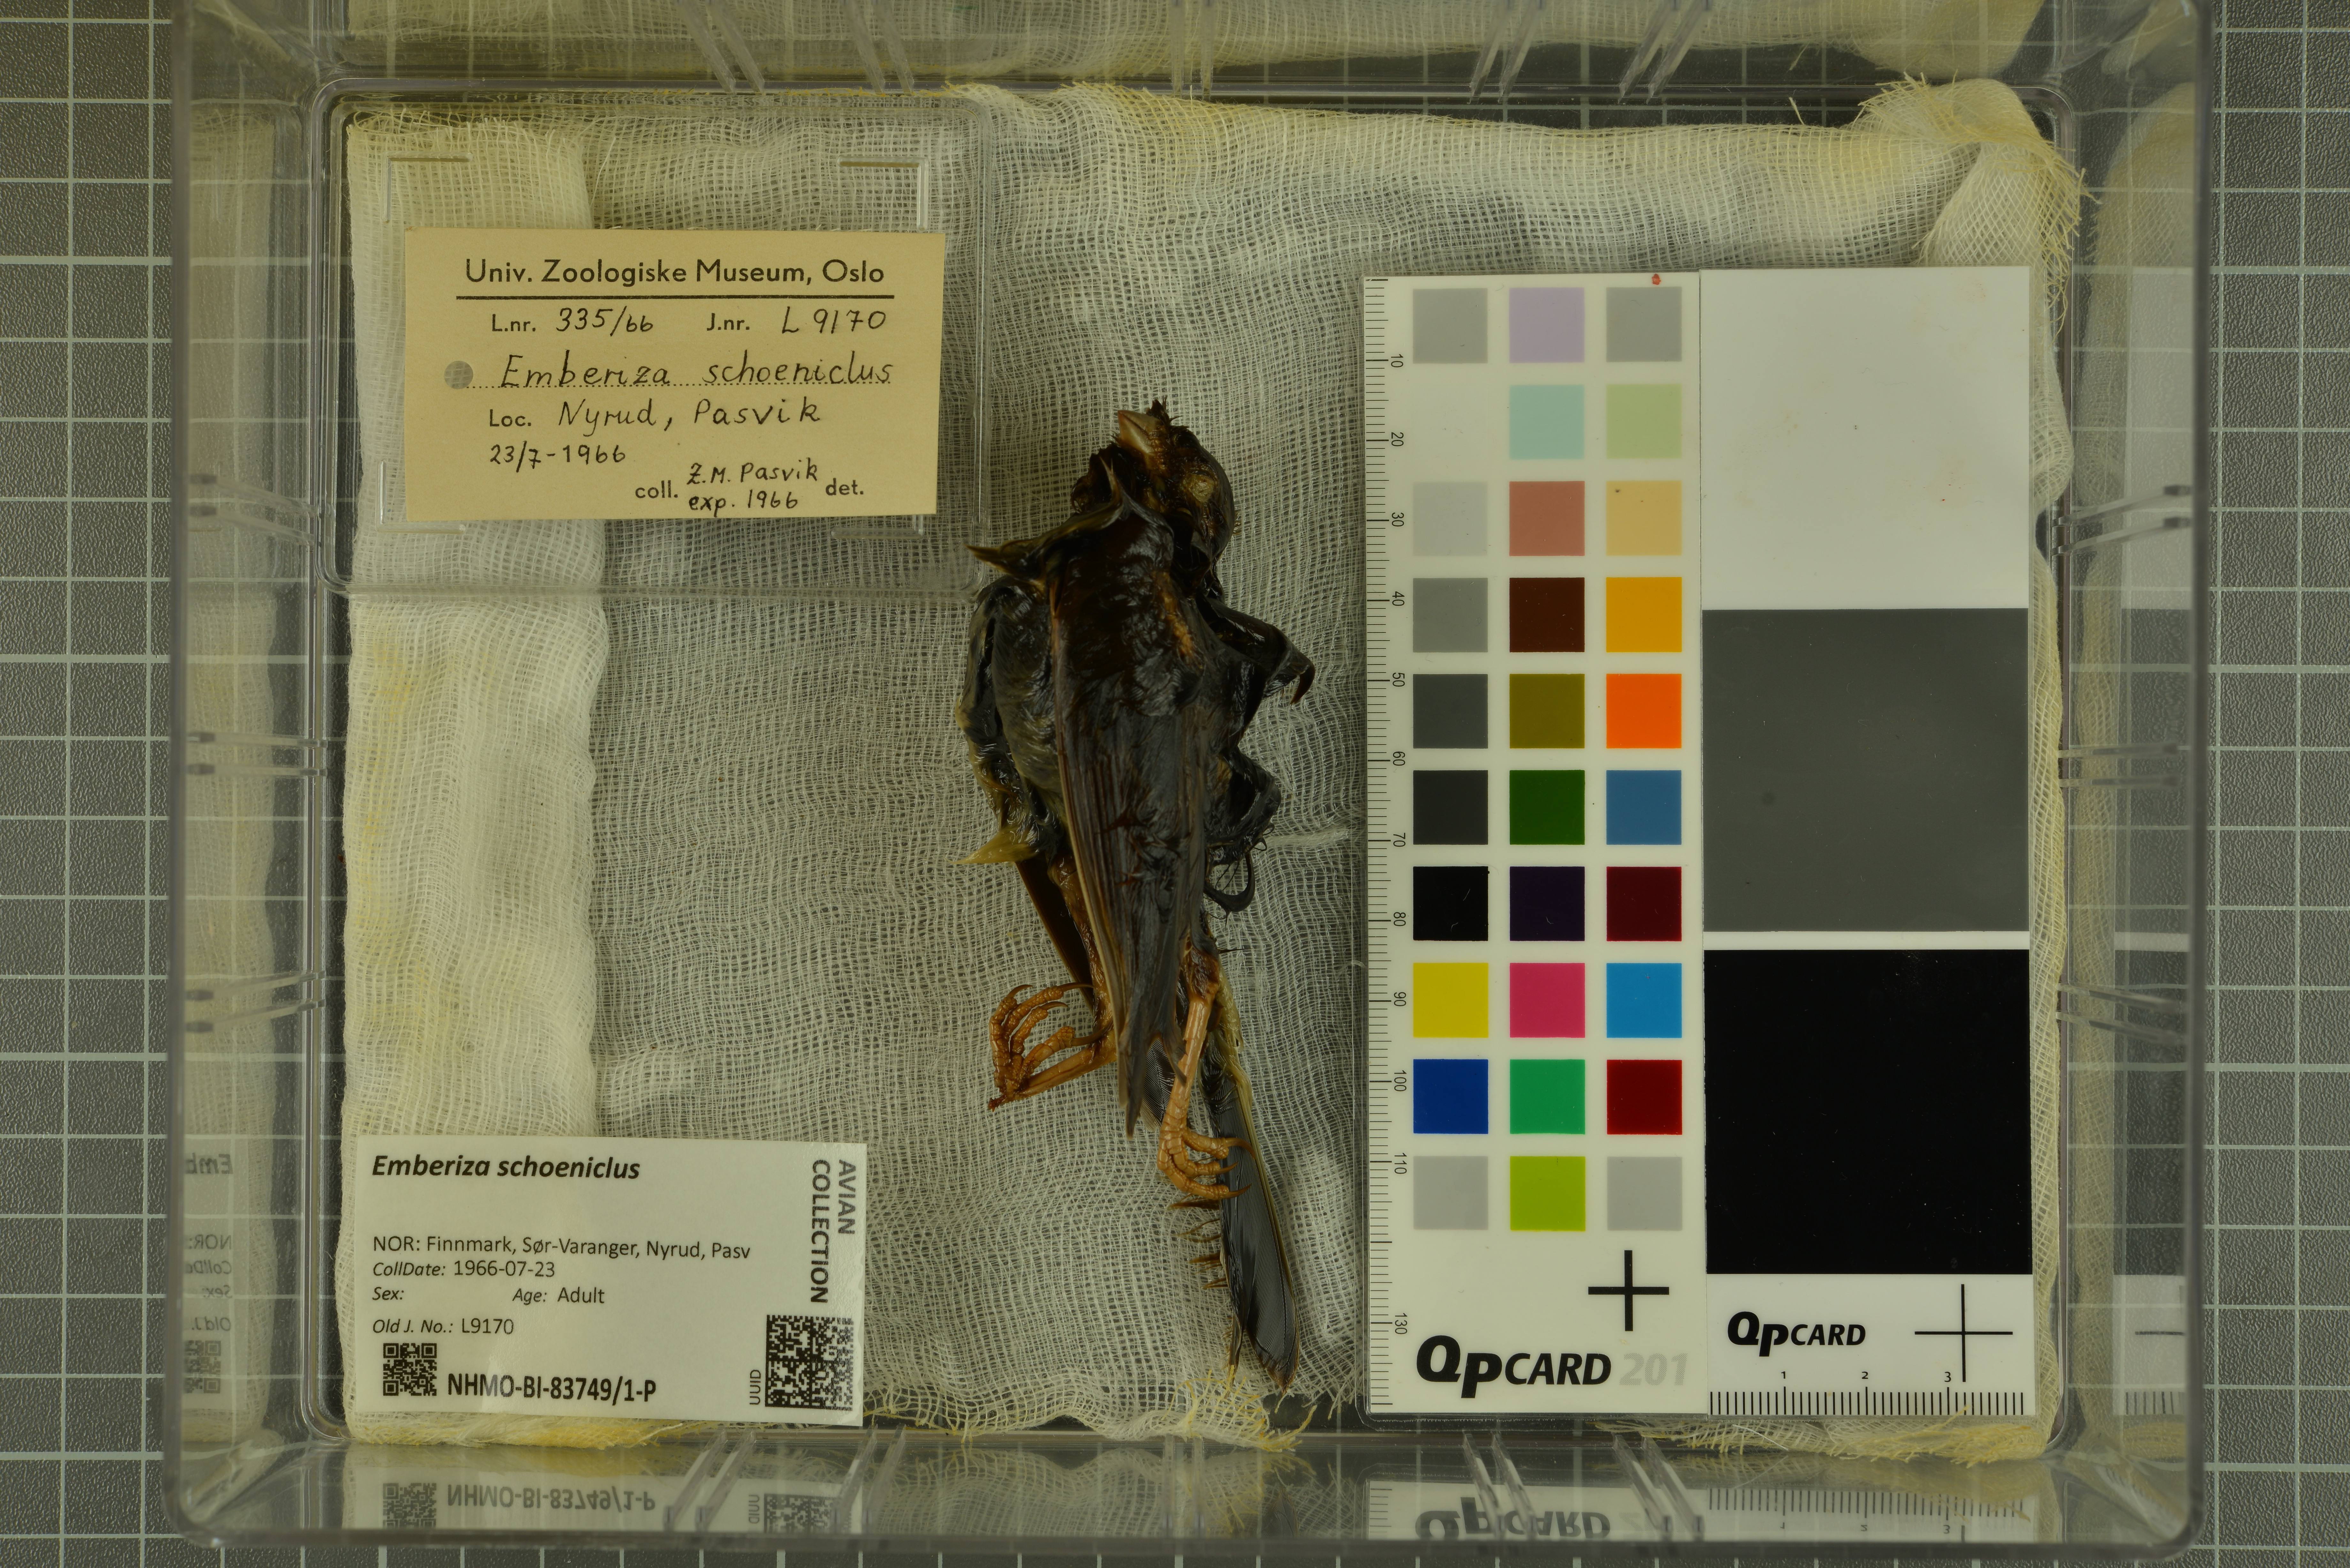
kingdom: Animalia
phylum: Chordata
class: Aves
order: Passeriformes
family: Emberizidae
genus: Emberiza
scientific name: Emberiza schoeniclus
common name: Reed bunting
